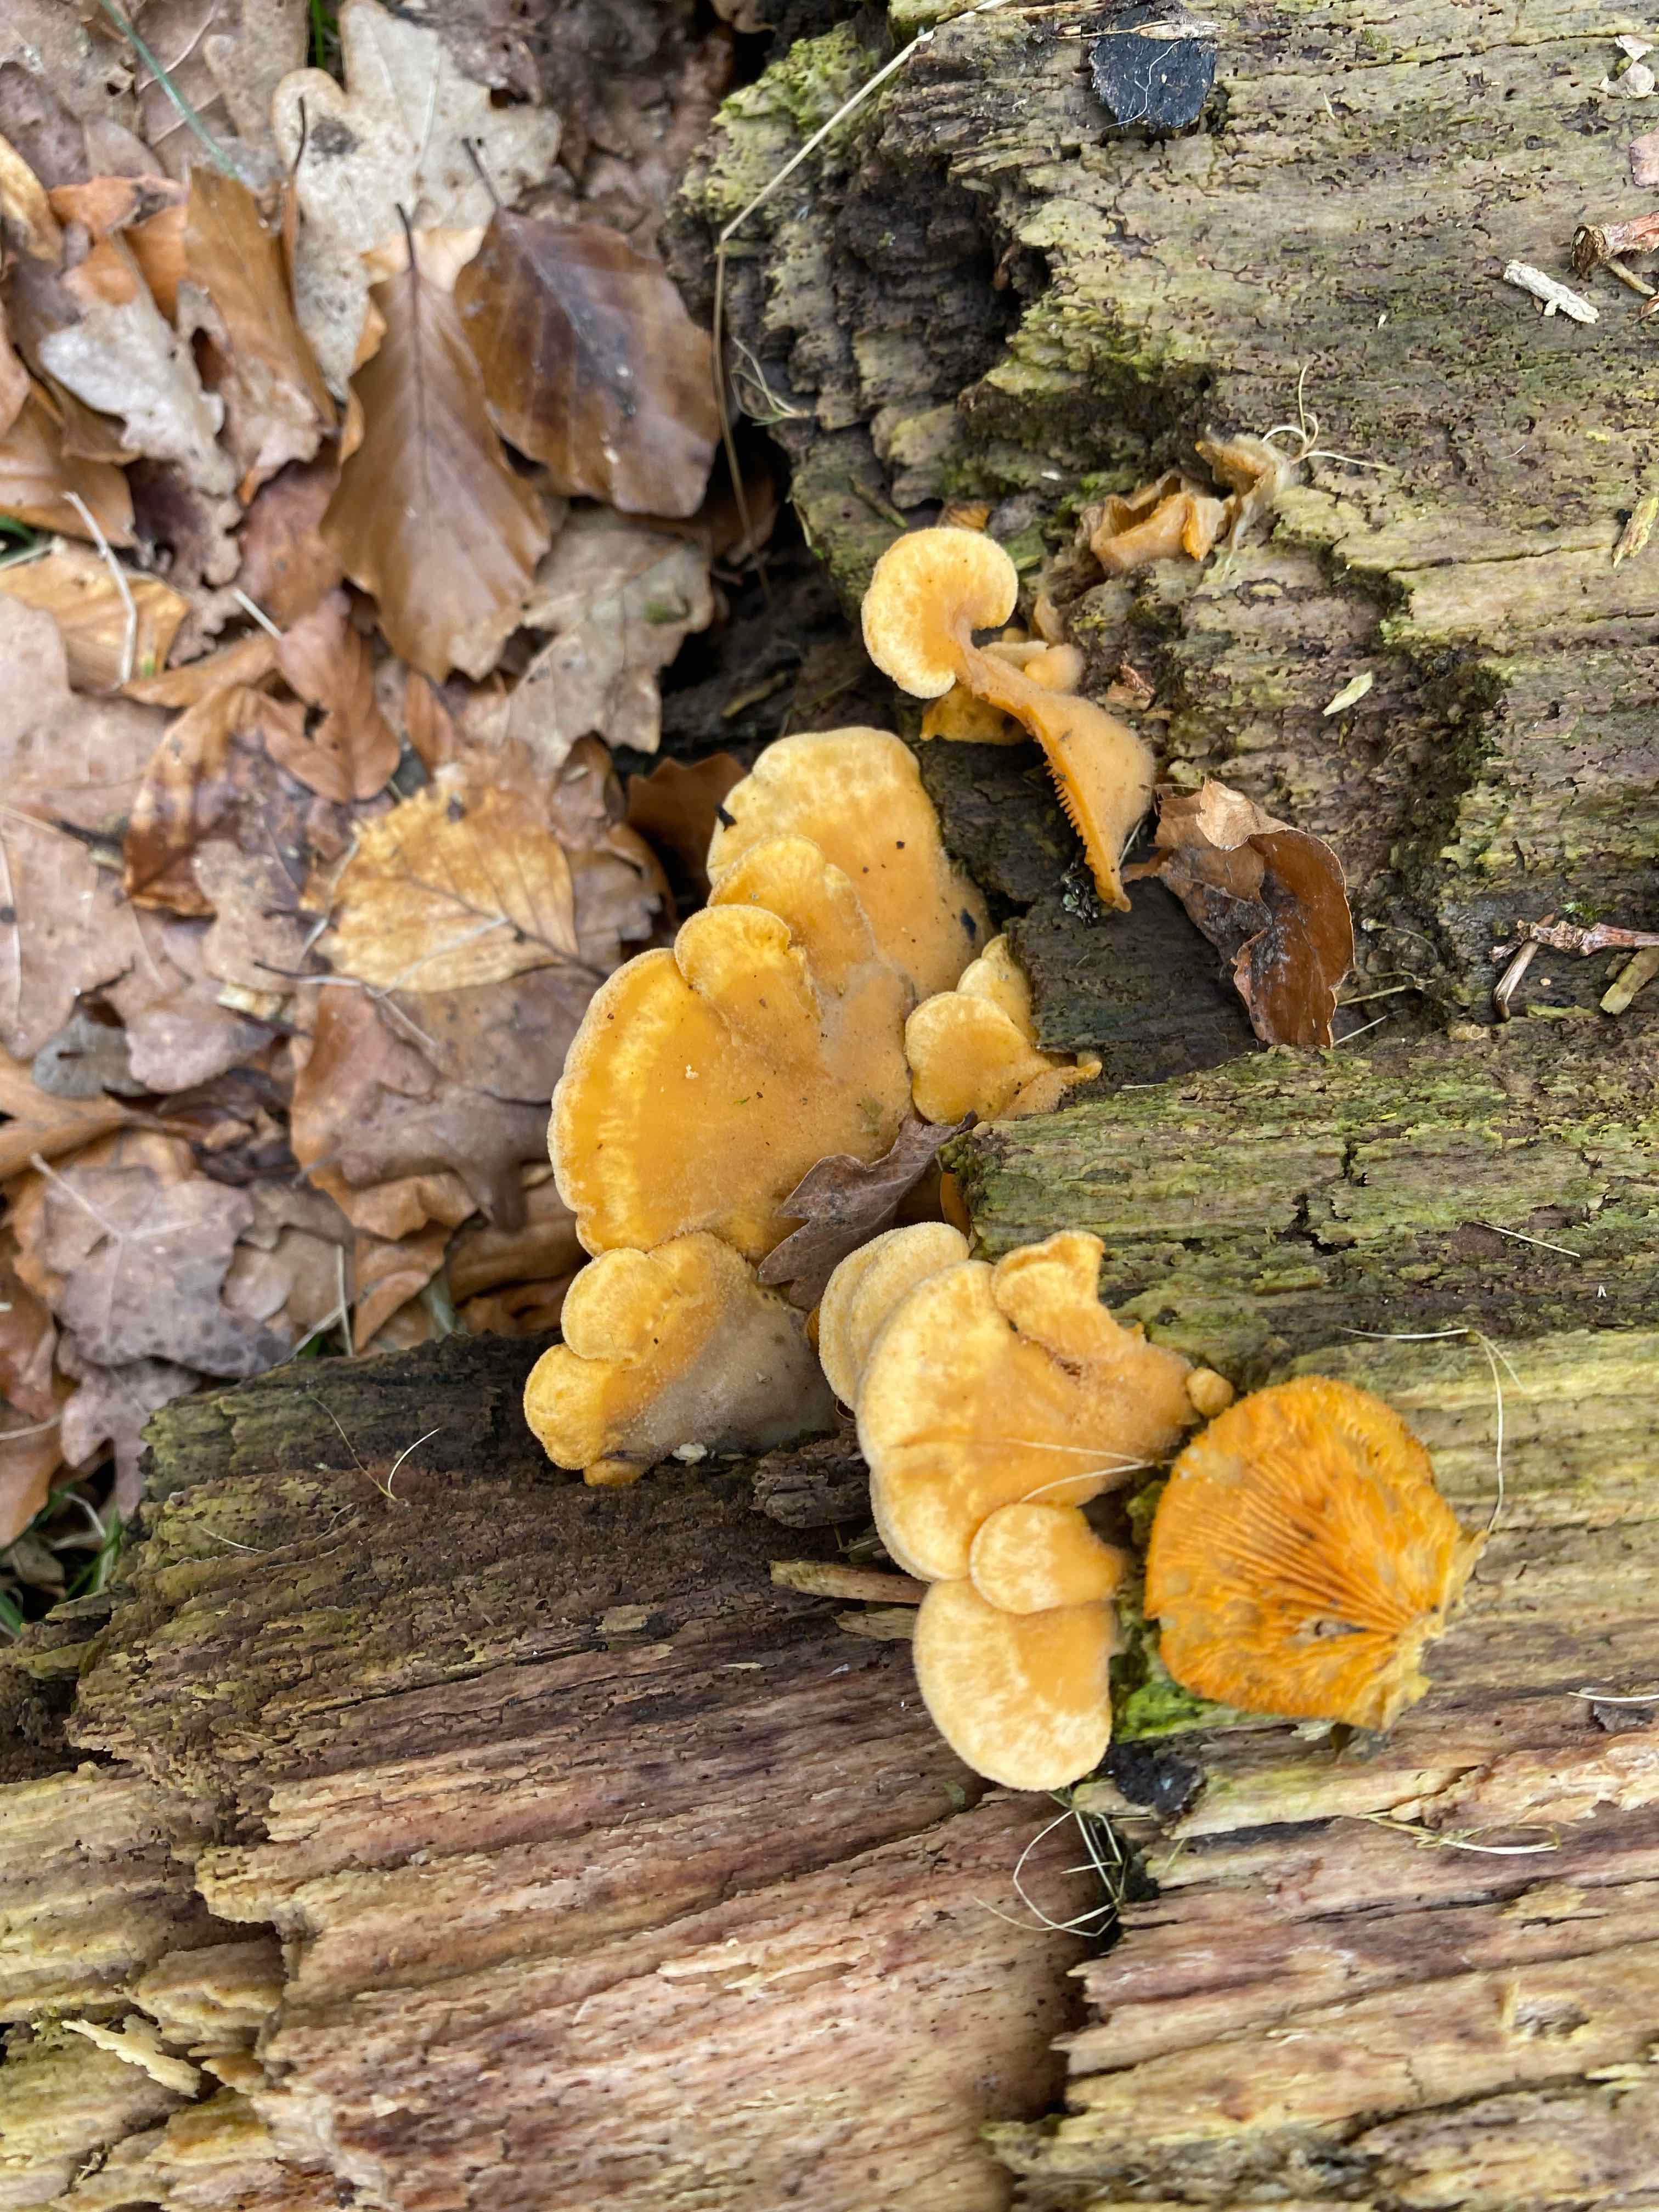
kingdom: Fungi
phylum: Basidiomycota
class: Agaricomycetes
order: Agaricales
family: Phyllotopsidaceae
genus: Phyllotopsis
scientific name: Phyllotopsis nidulans
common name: okkerblad
